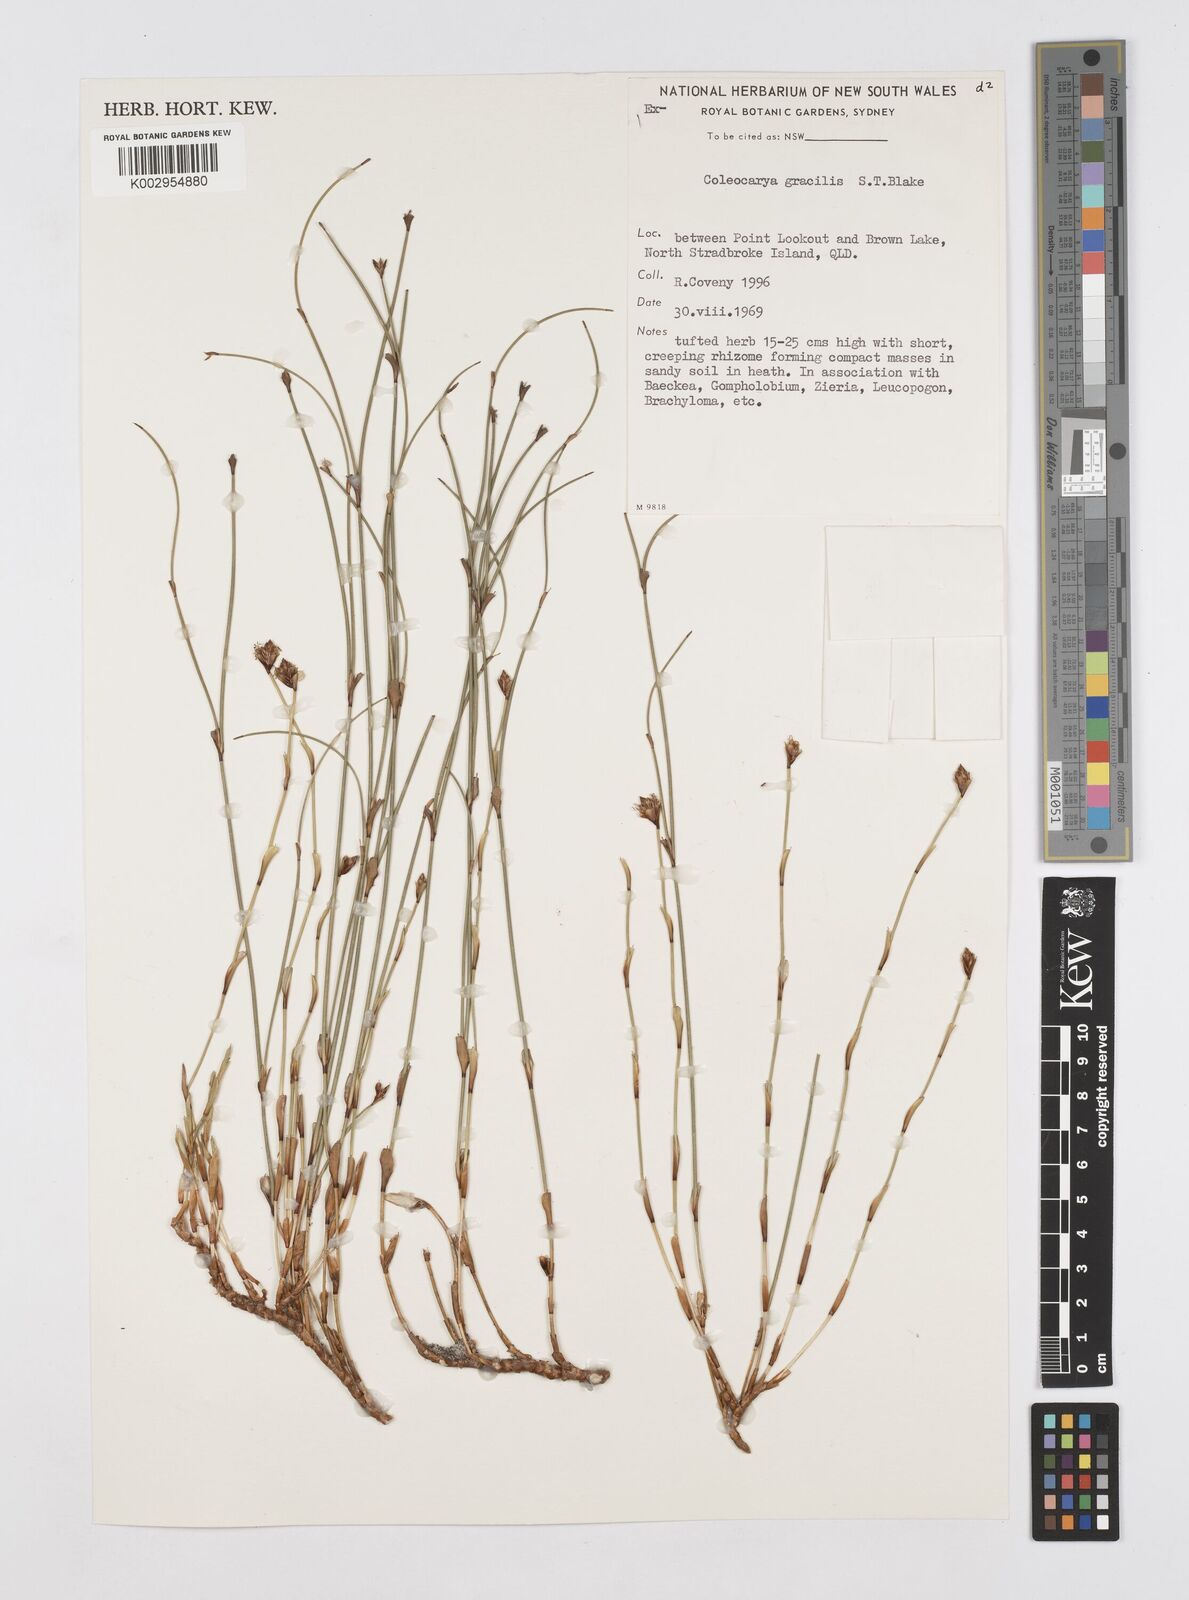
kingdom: Plantae
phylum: Tracheophyta
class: Liliopsida
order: Poales
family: Restionaceae
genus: Coleocarya
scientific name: Coleocarya gracilis
